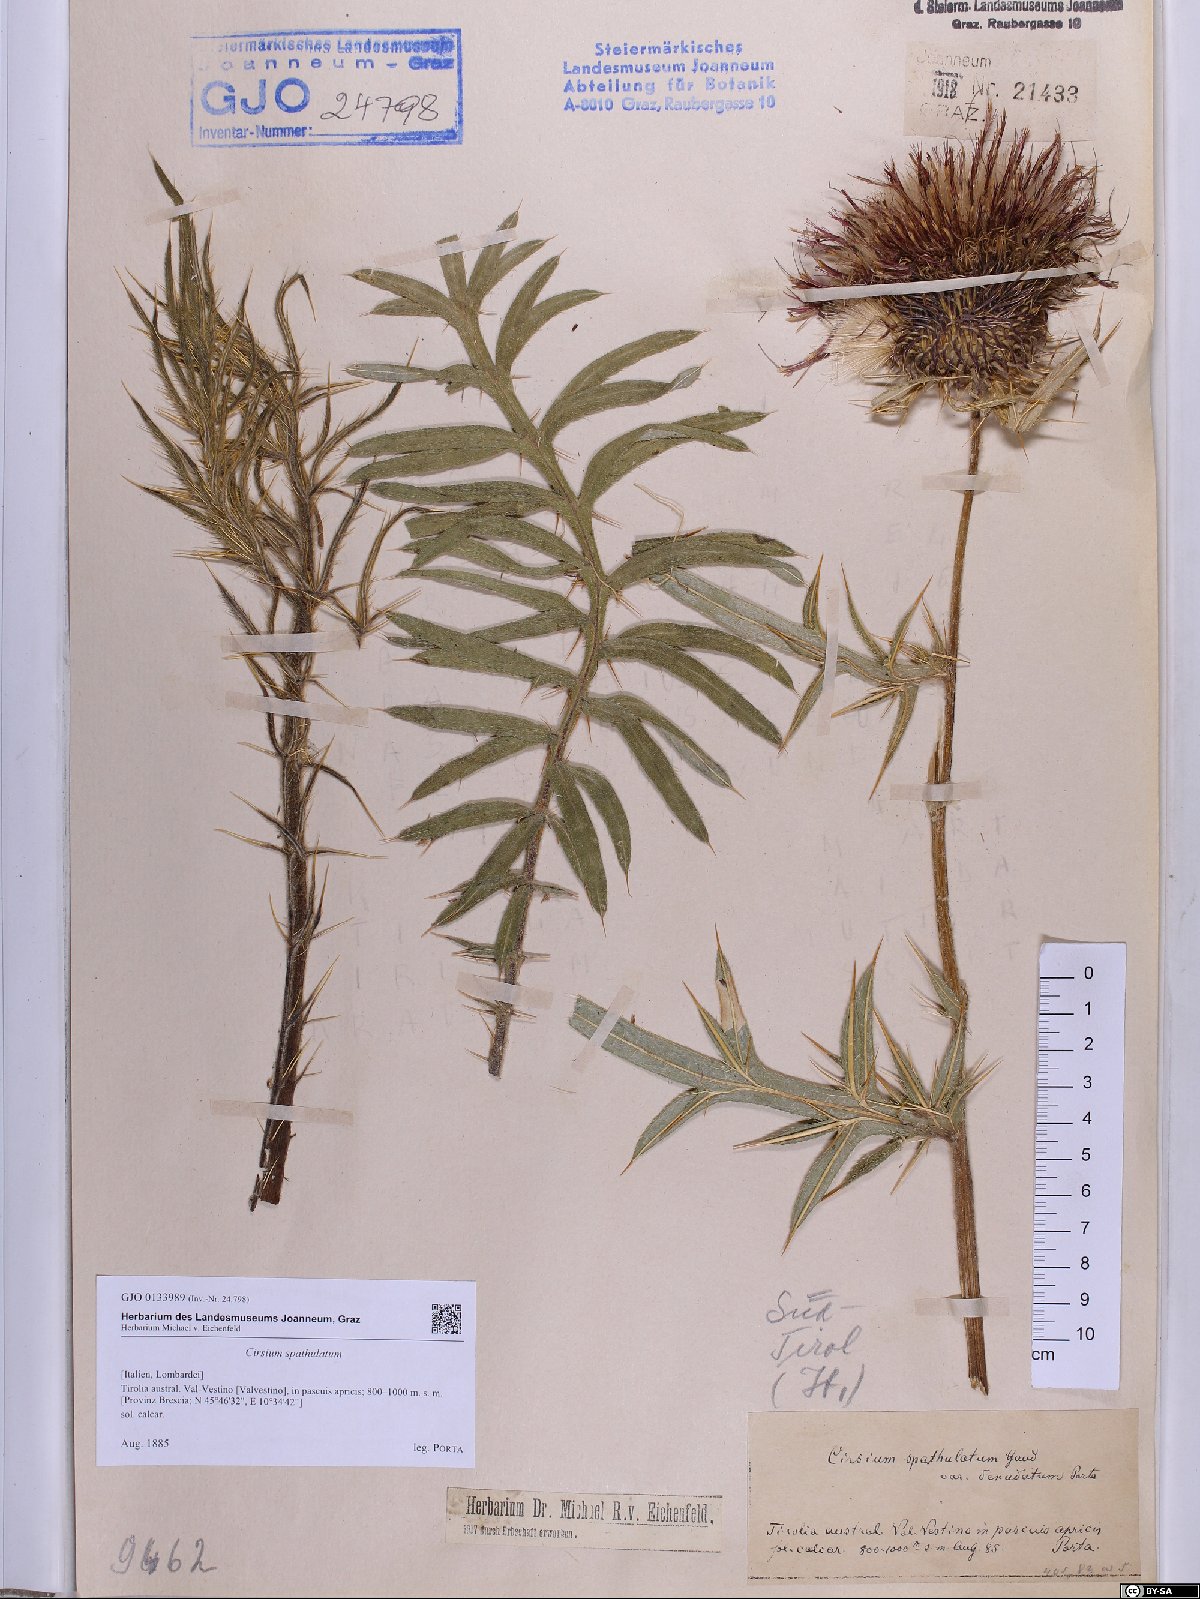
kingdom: Plantae
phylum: Tracheophyta
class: Magnoliopsida
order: Asterales
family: Asteraceae
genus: Lophiolepis
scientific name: Lophiolepis spathulata
